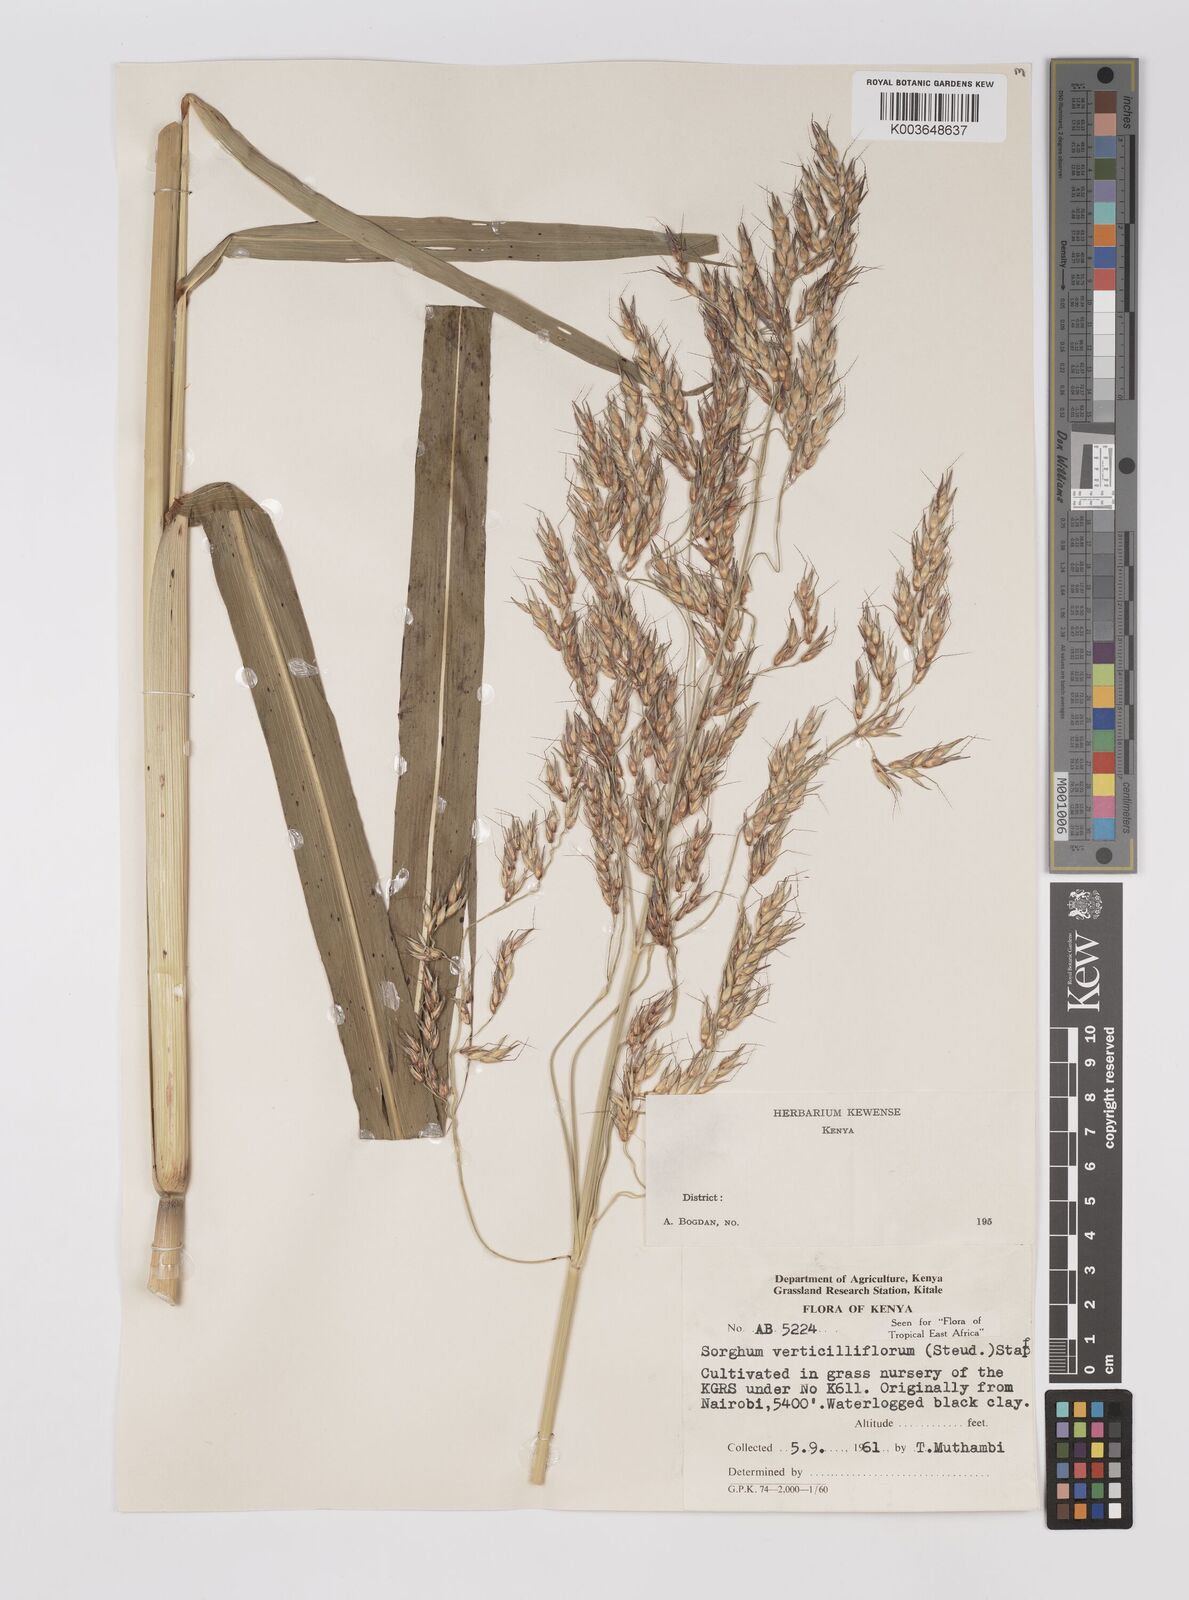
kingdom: Plantae
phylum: Tracheophyta
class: Liliopsida
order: Poales
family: Poaceae
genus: Sorghum
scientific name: Sorghum arundinaceum
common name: Sorghum
